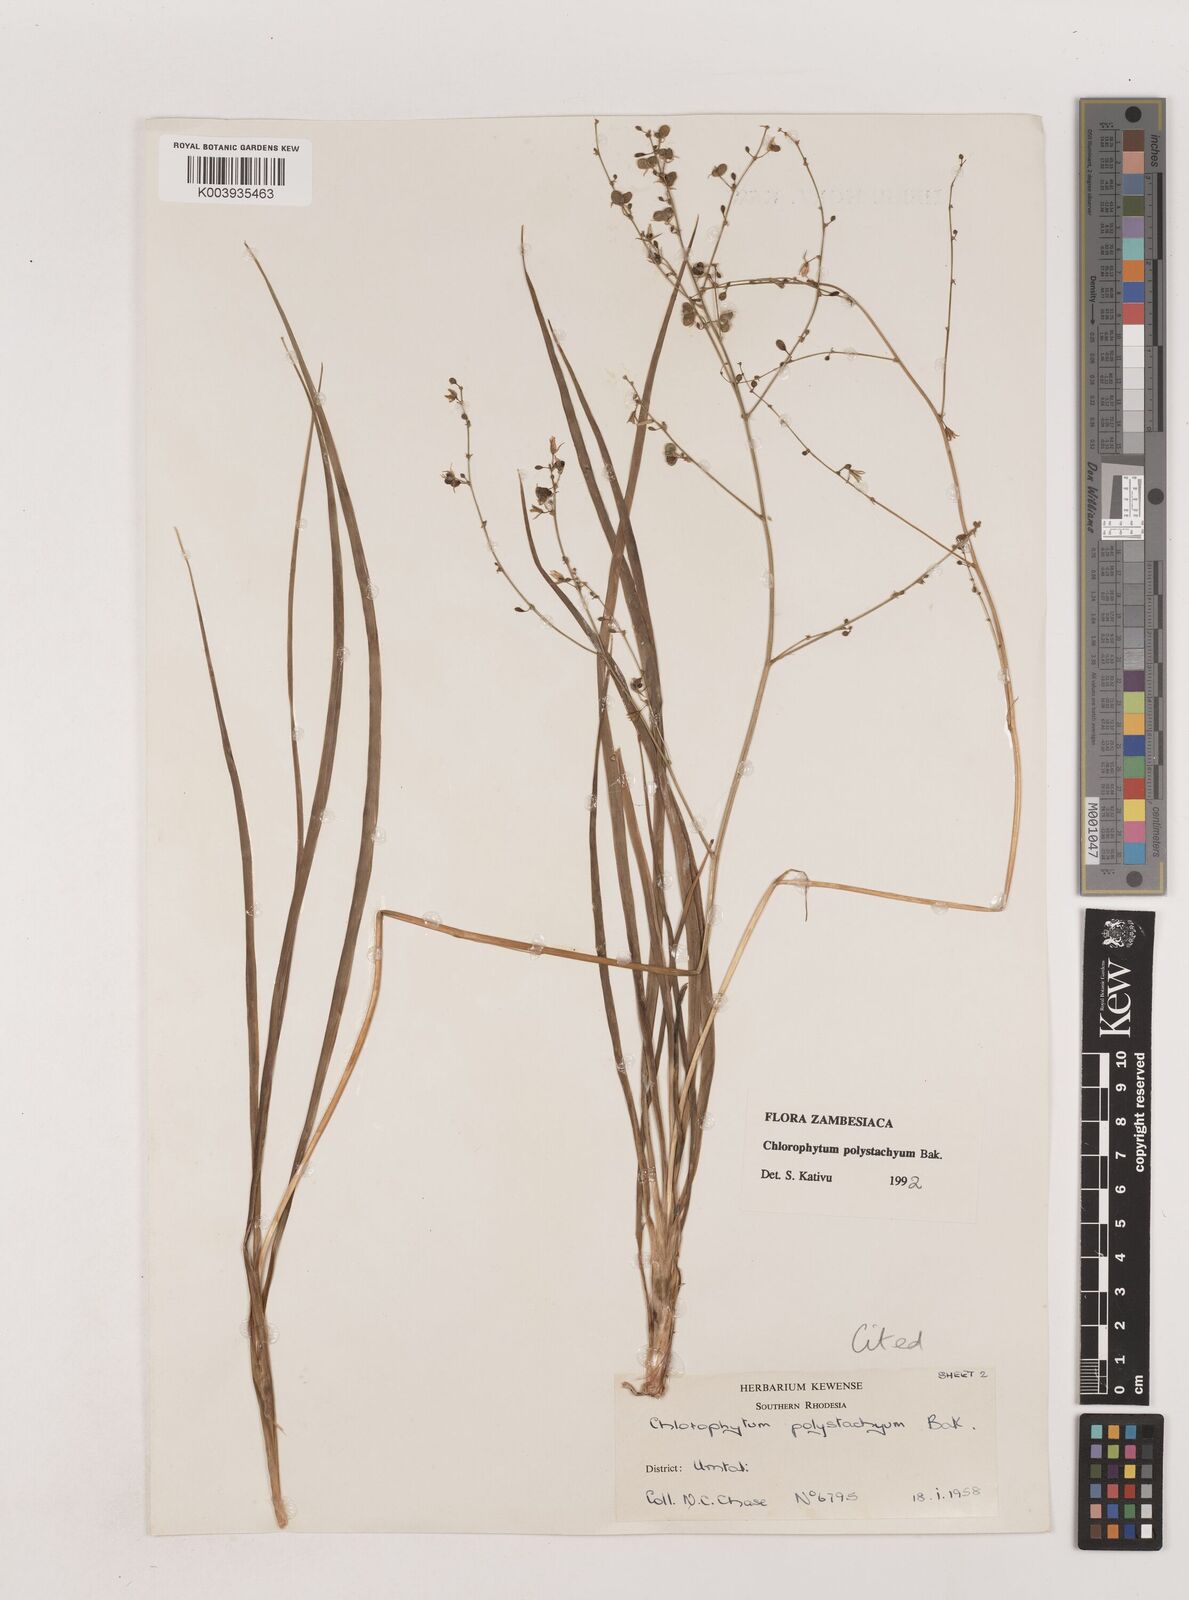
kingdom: Plantae
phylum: Tracheophyta
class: Liliopsida
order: Asparagales
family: Asparagaceae
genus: Chlorophytum
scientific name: Chlorophytum polystachys
